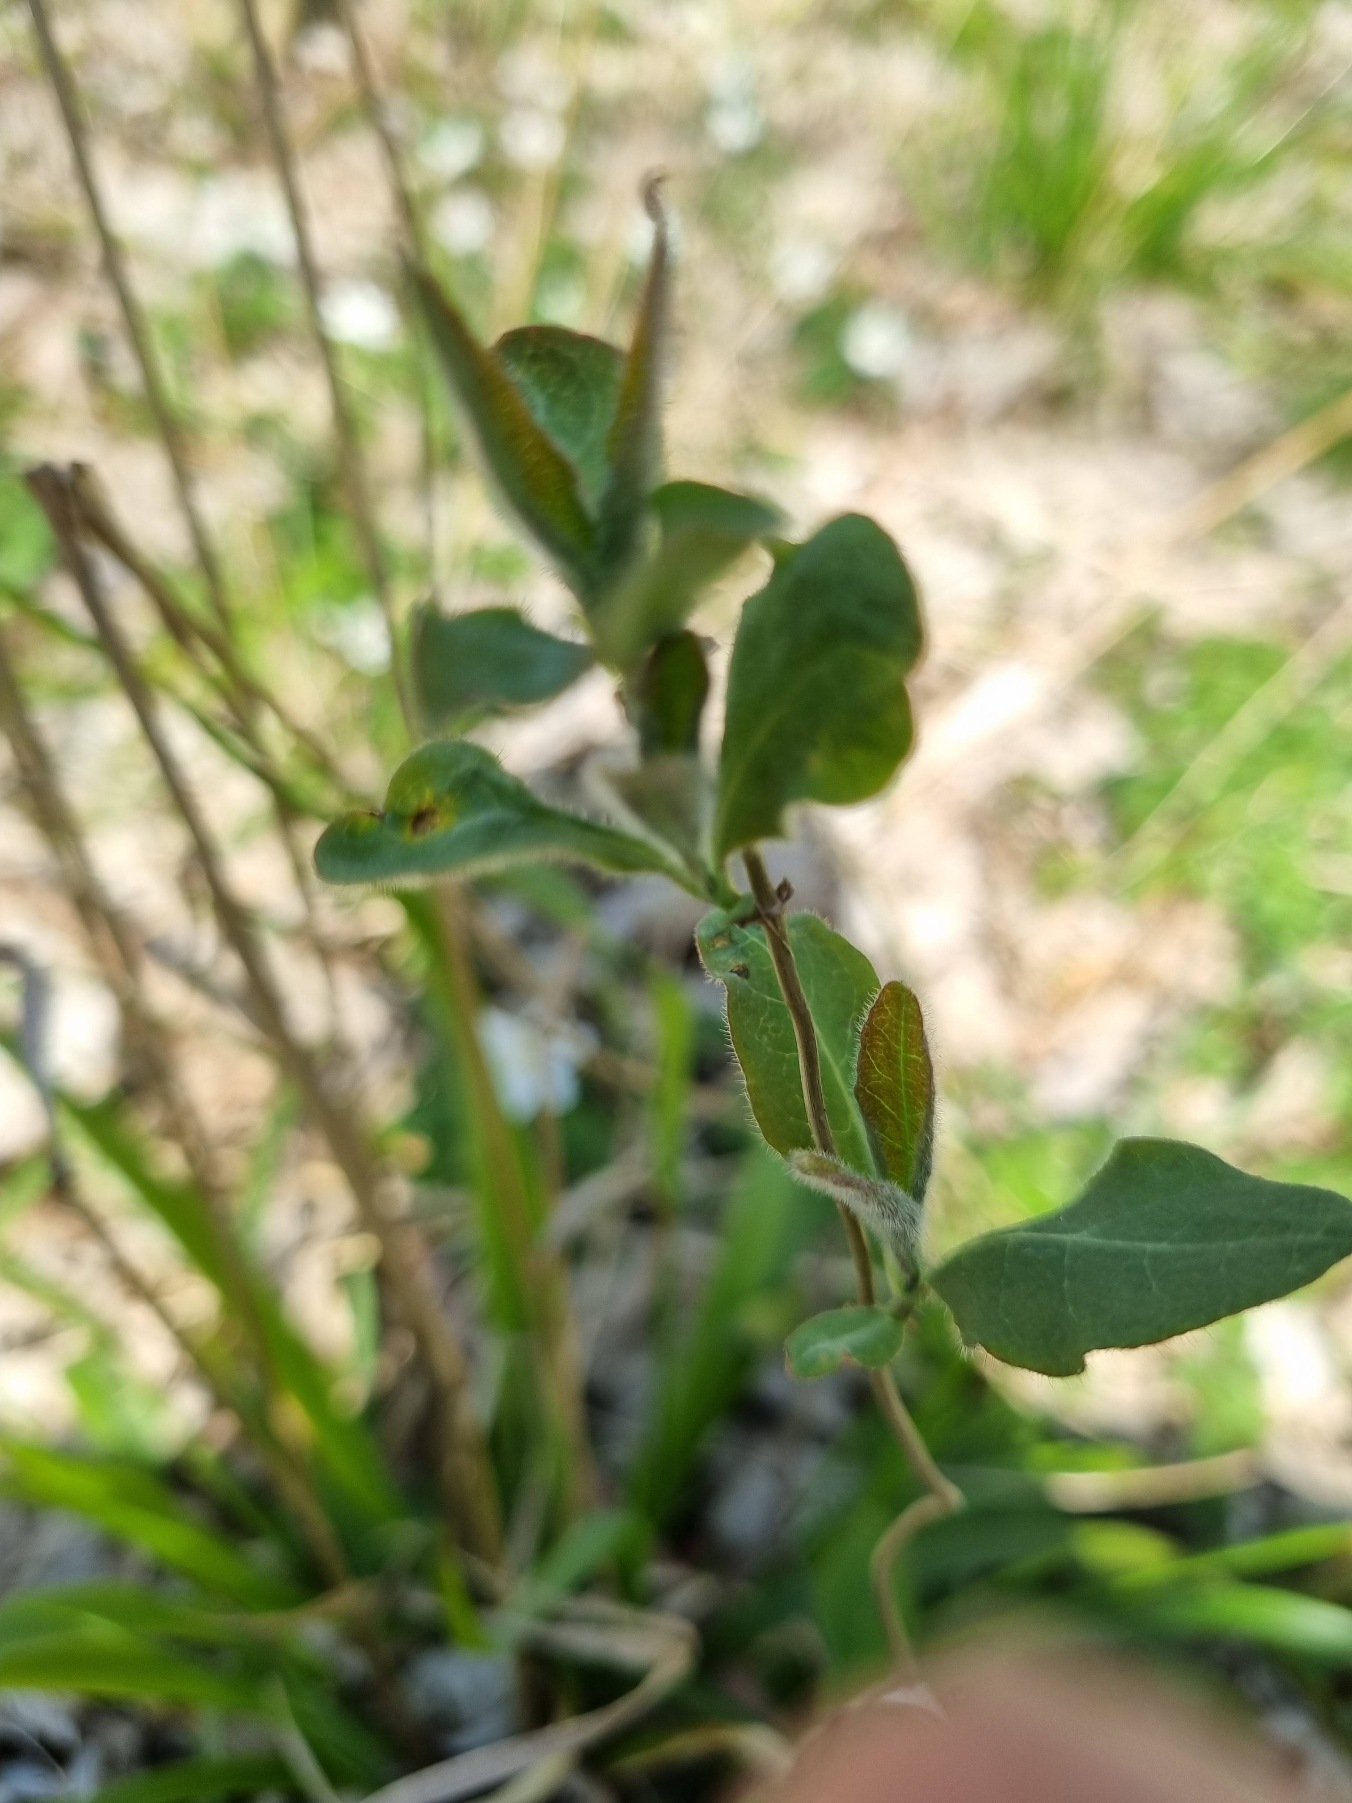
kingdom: Plantae
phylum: Tracheophyta
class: Magnoliopsida
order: Dipsacales
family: Caprifoliaceae
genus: Lonicera
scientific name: Lonicera periclymenum
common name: Almindelig gedeblad
